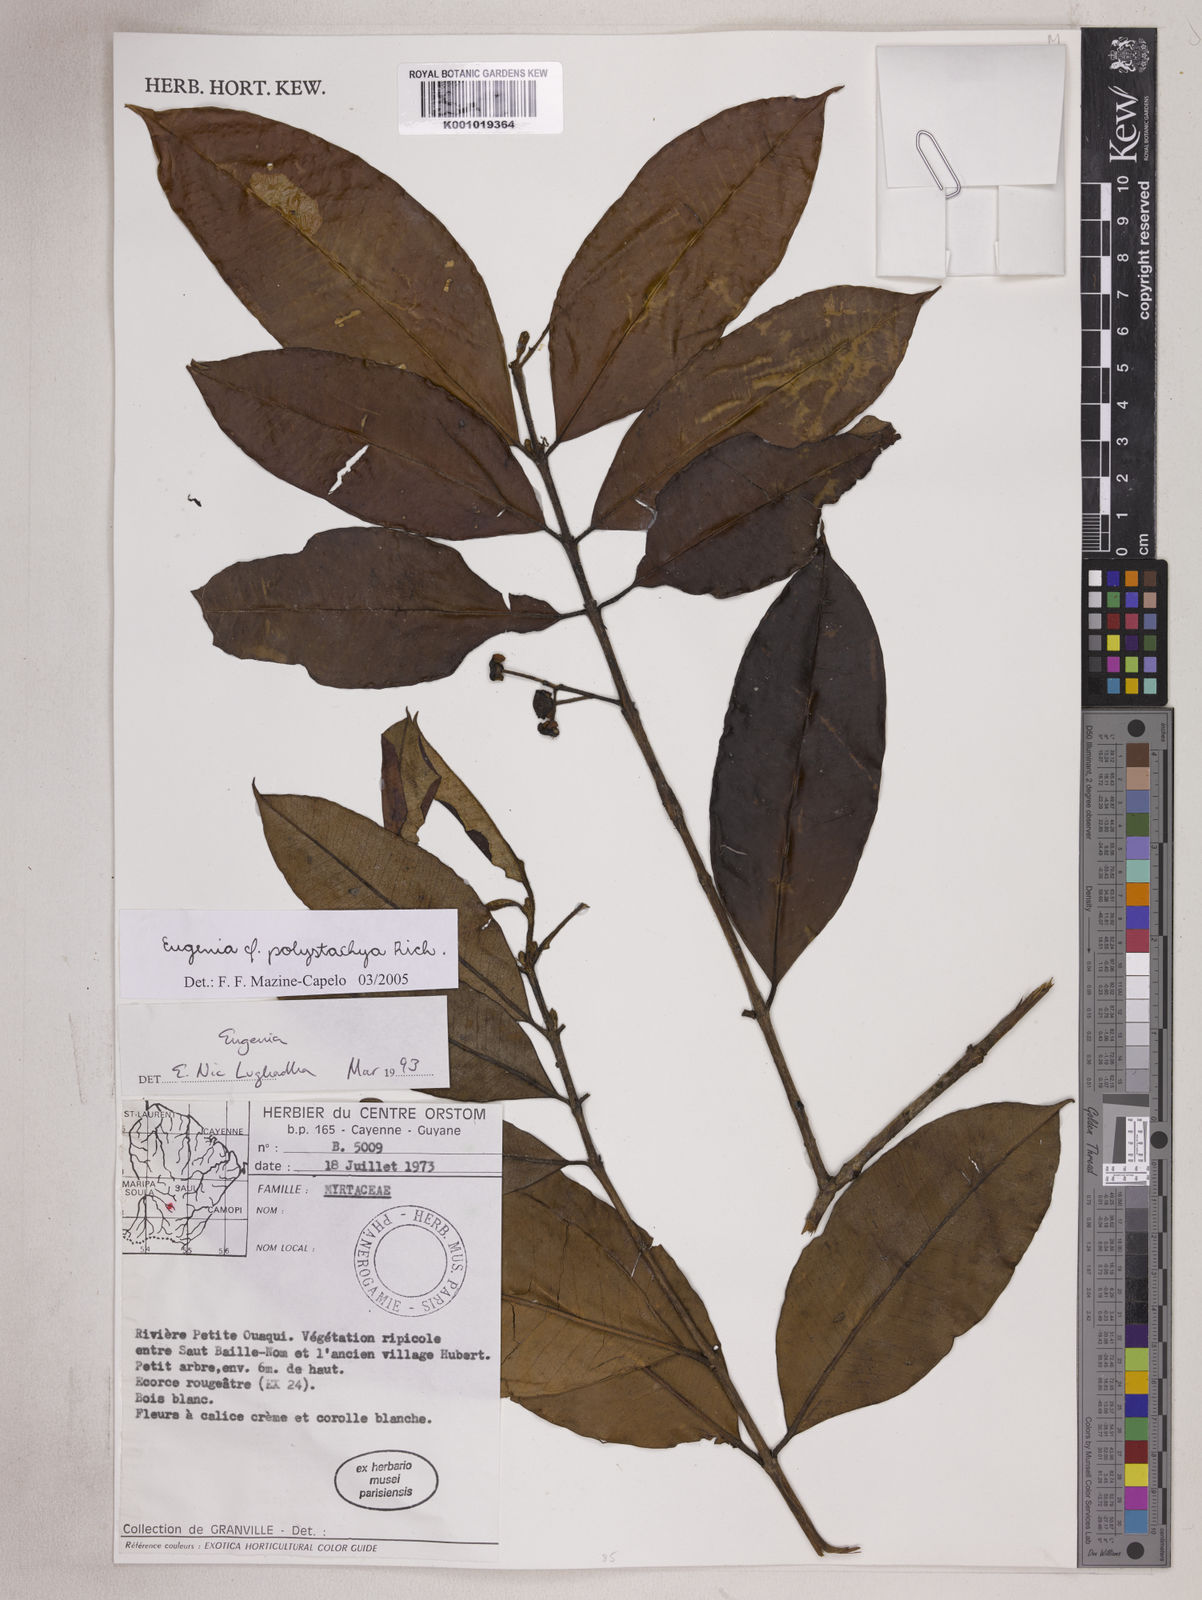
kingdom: Plantae
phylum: Tracheophyta
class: Magnoliopsida
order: Myrtales
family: Myrtaceae
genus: Eugenia
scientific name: Eugenia polystachya
